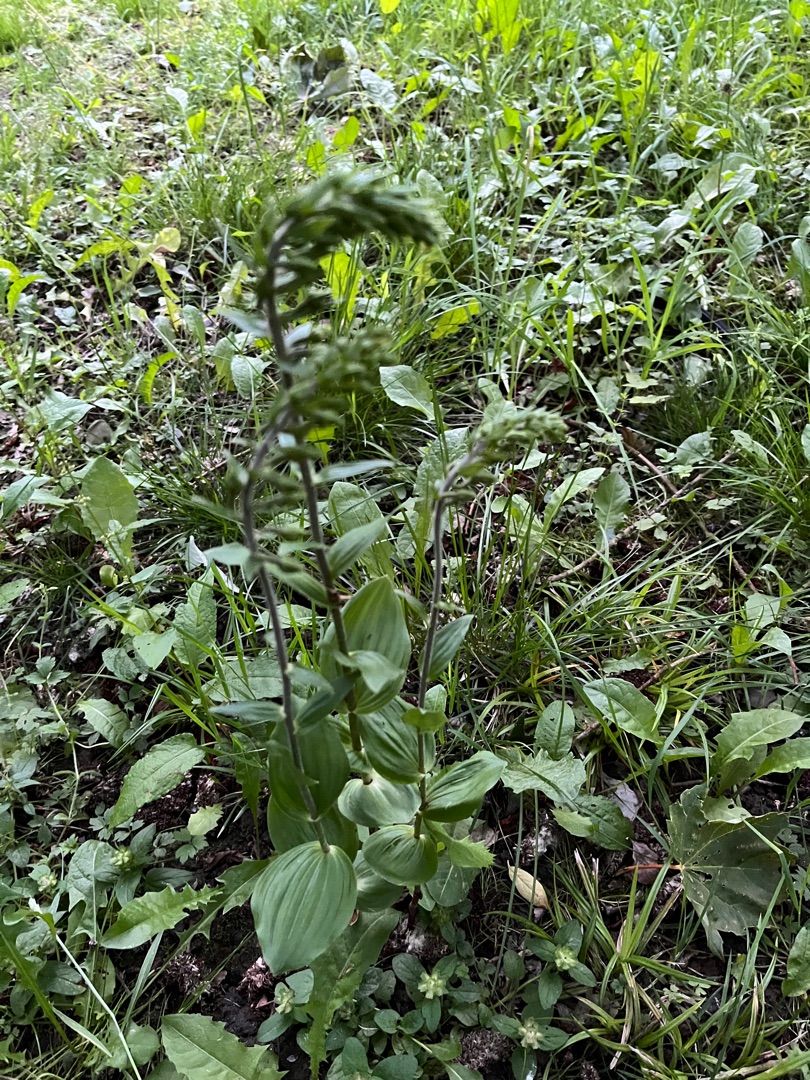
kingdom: Plantae
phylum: Tracheophyta
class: Liliopsida
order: Asparagales
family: Orchidaceae
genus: Epipactis
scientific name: Epipactis helleborine
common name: Skov-hullæbe
